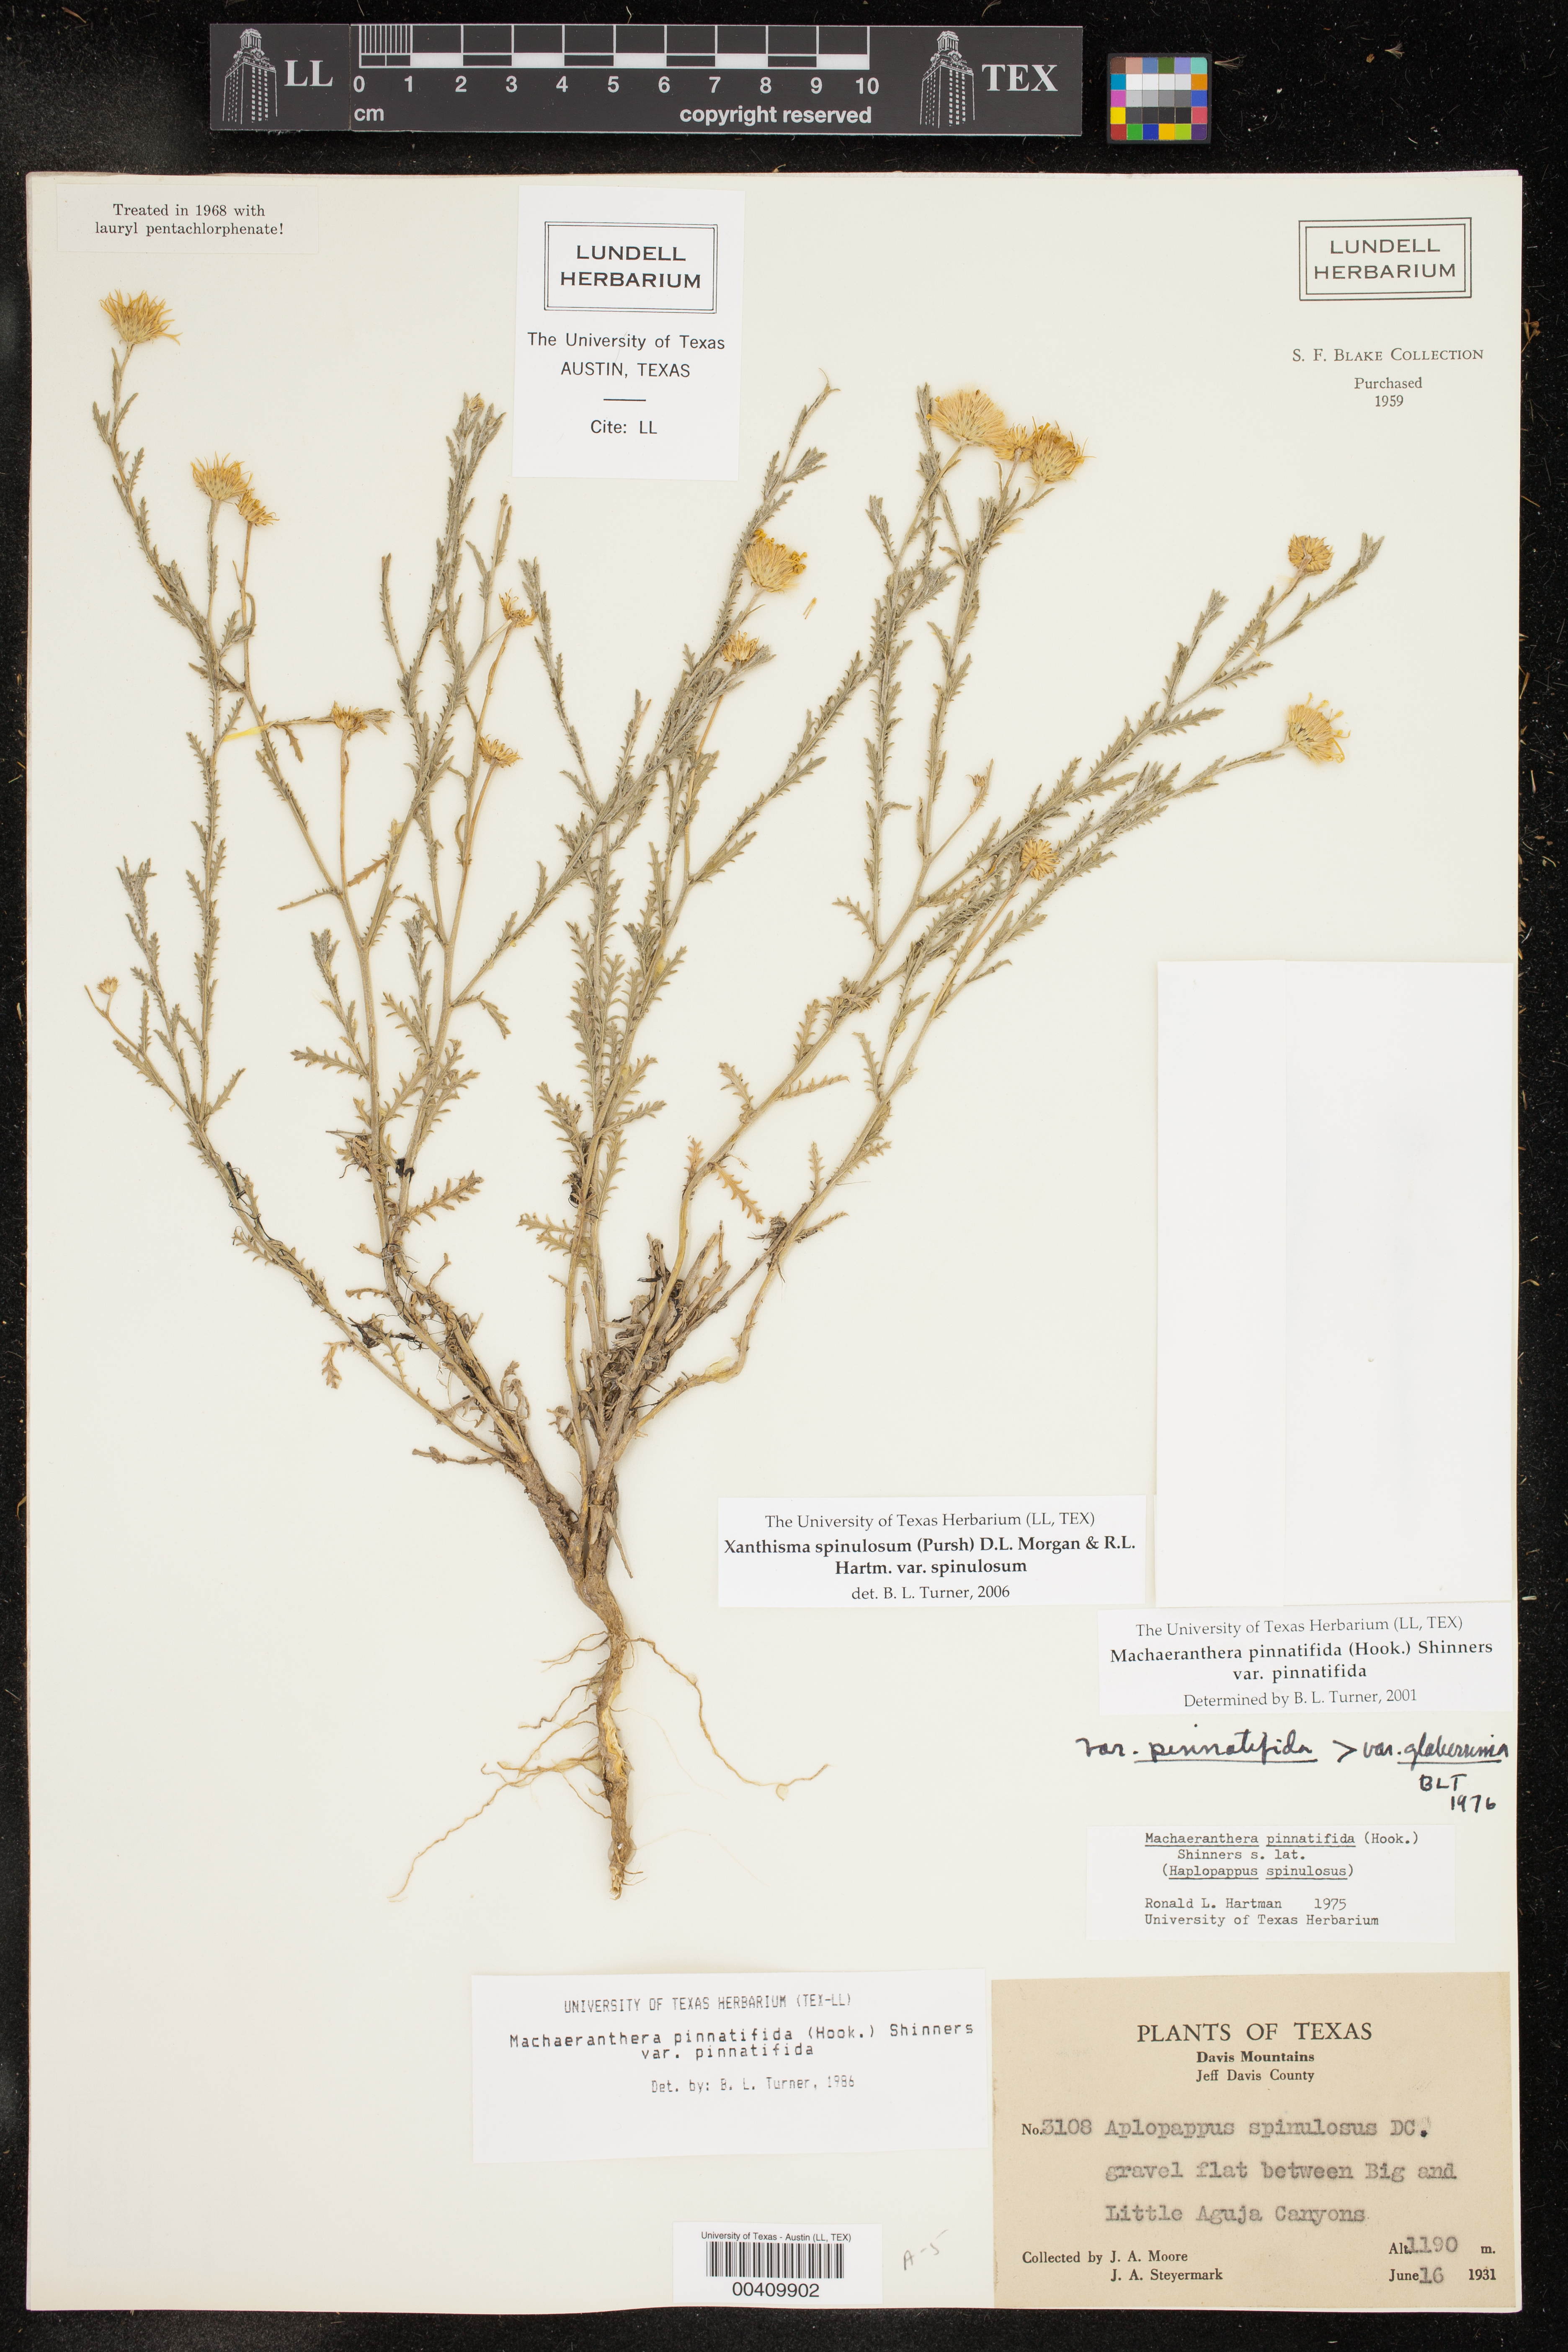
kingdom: Plantae
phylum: Tracheophyta
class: Magnoliopsida
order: Asterales
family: Asteraceae
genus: Xanthisma
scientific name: Xanthisma spinulosum
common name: Spiny goldenweed
